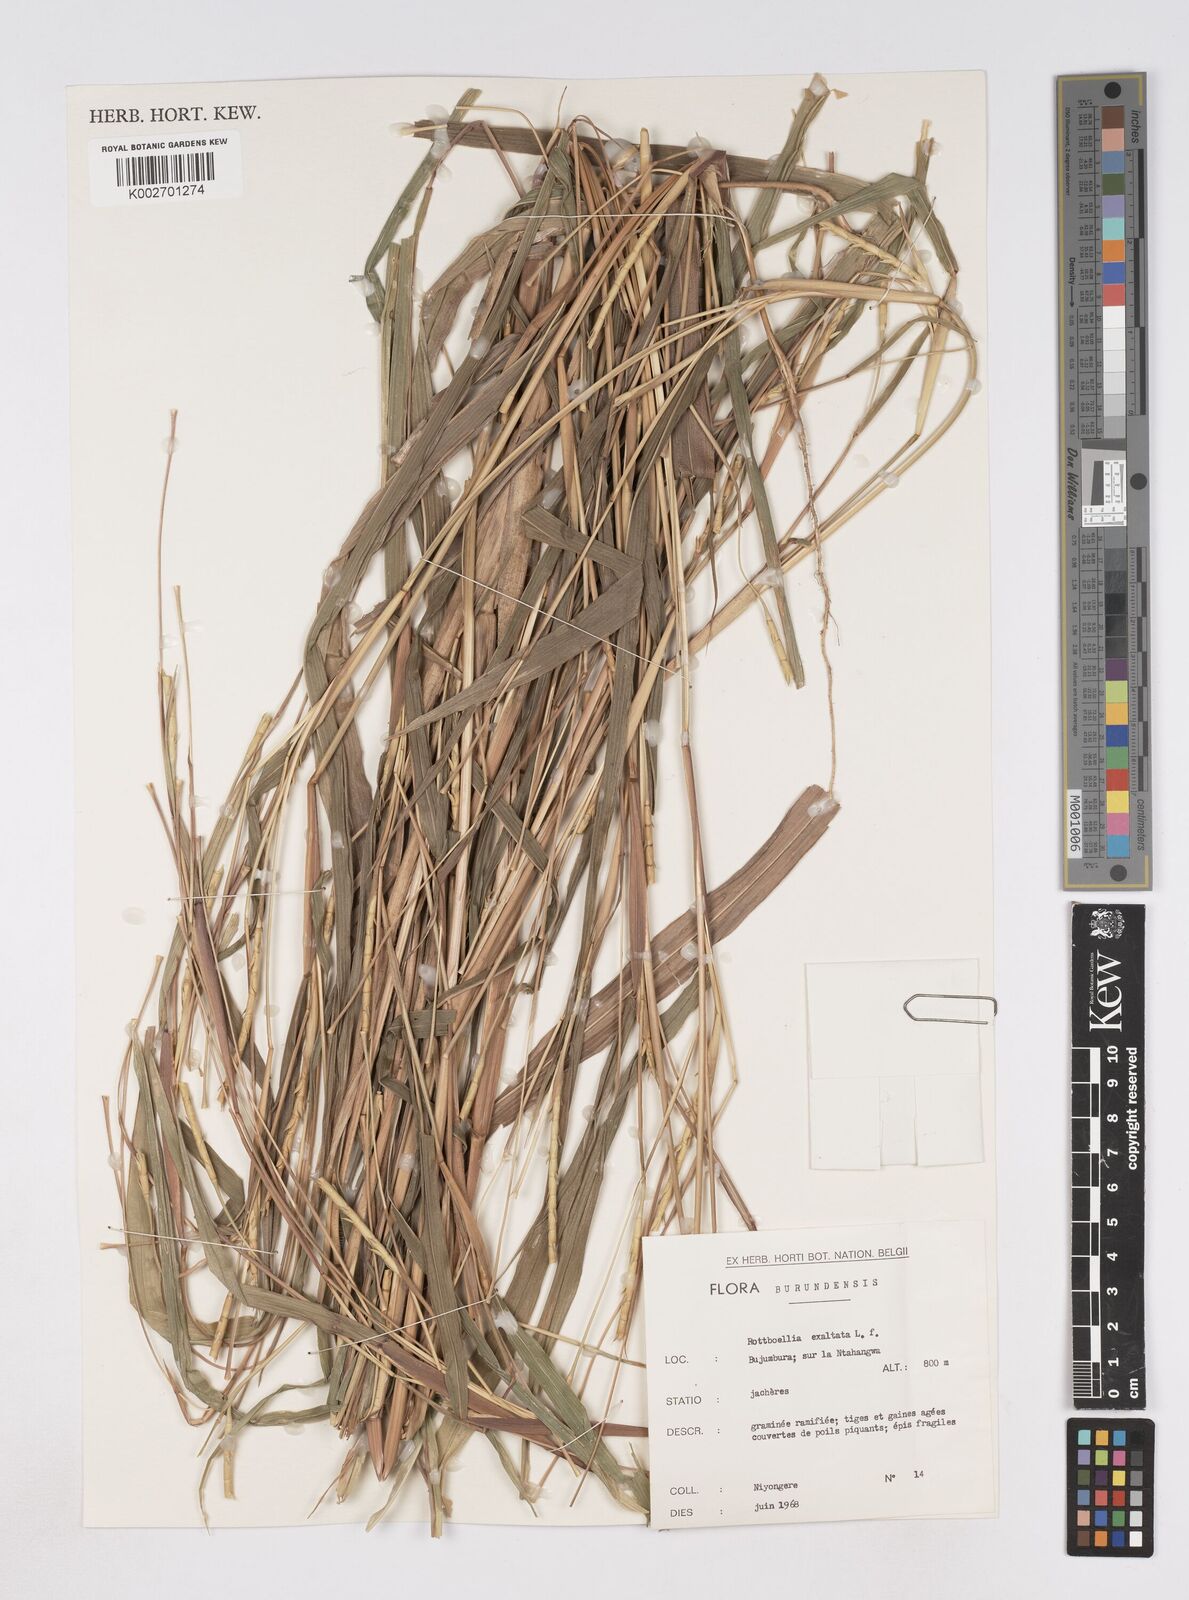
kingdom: Plantae
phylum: Tracheophyta
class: Liliopsida
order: Poales
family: Poaceae
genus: Rottboellia
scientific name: Rottboellia
